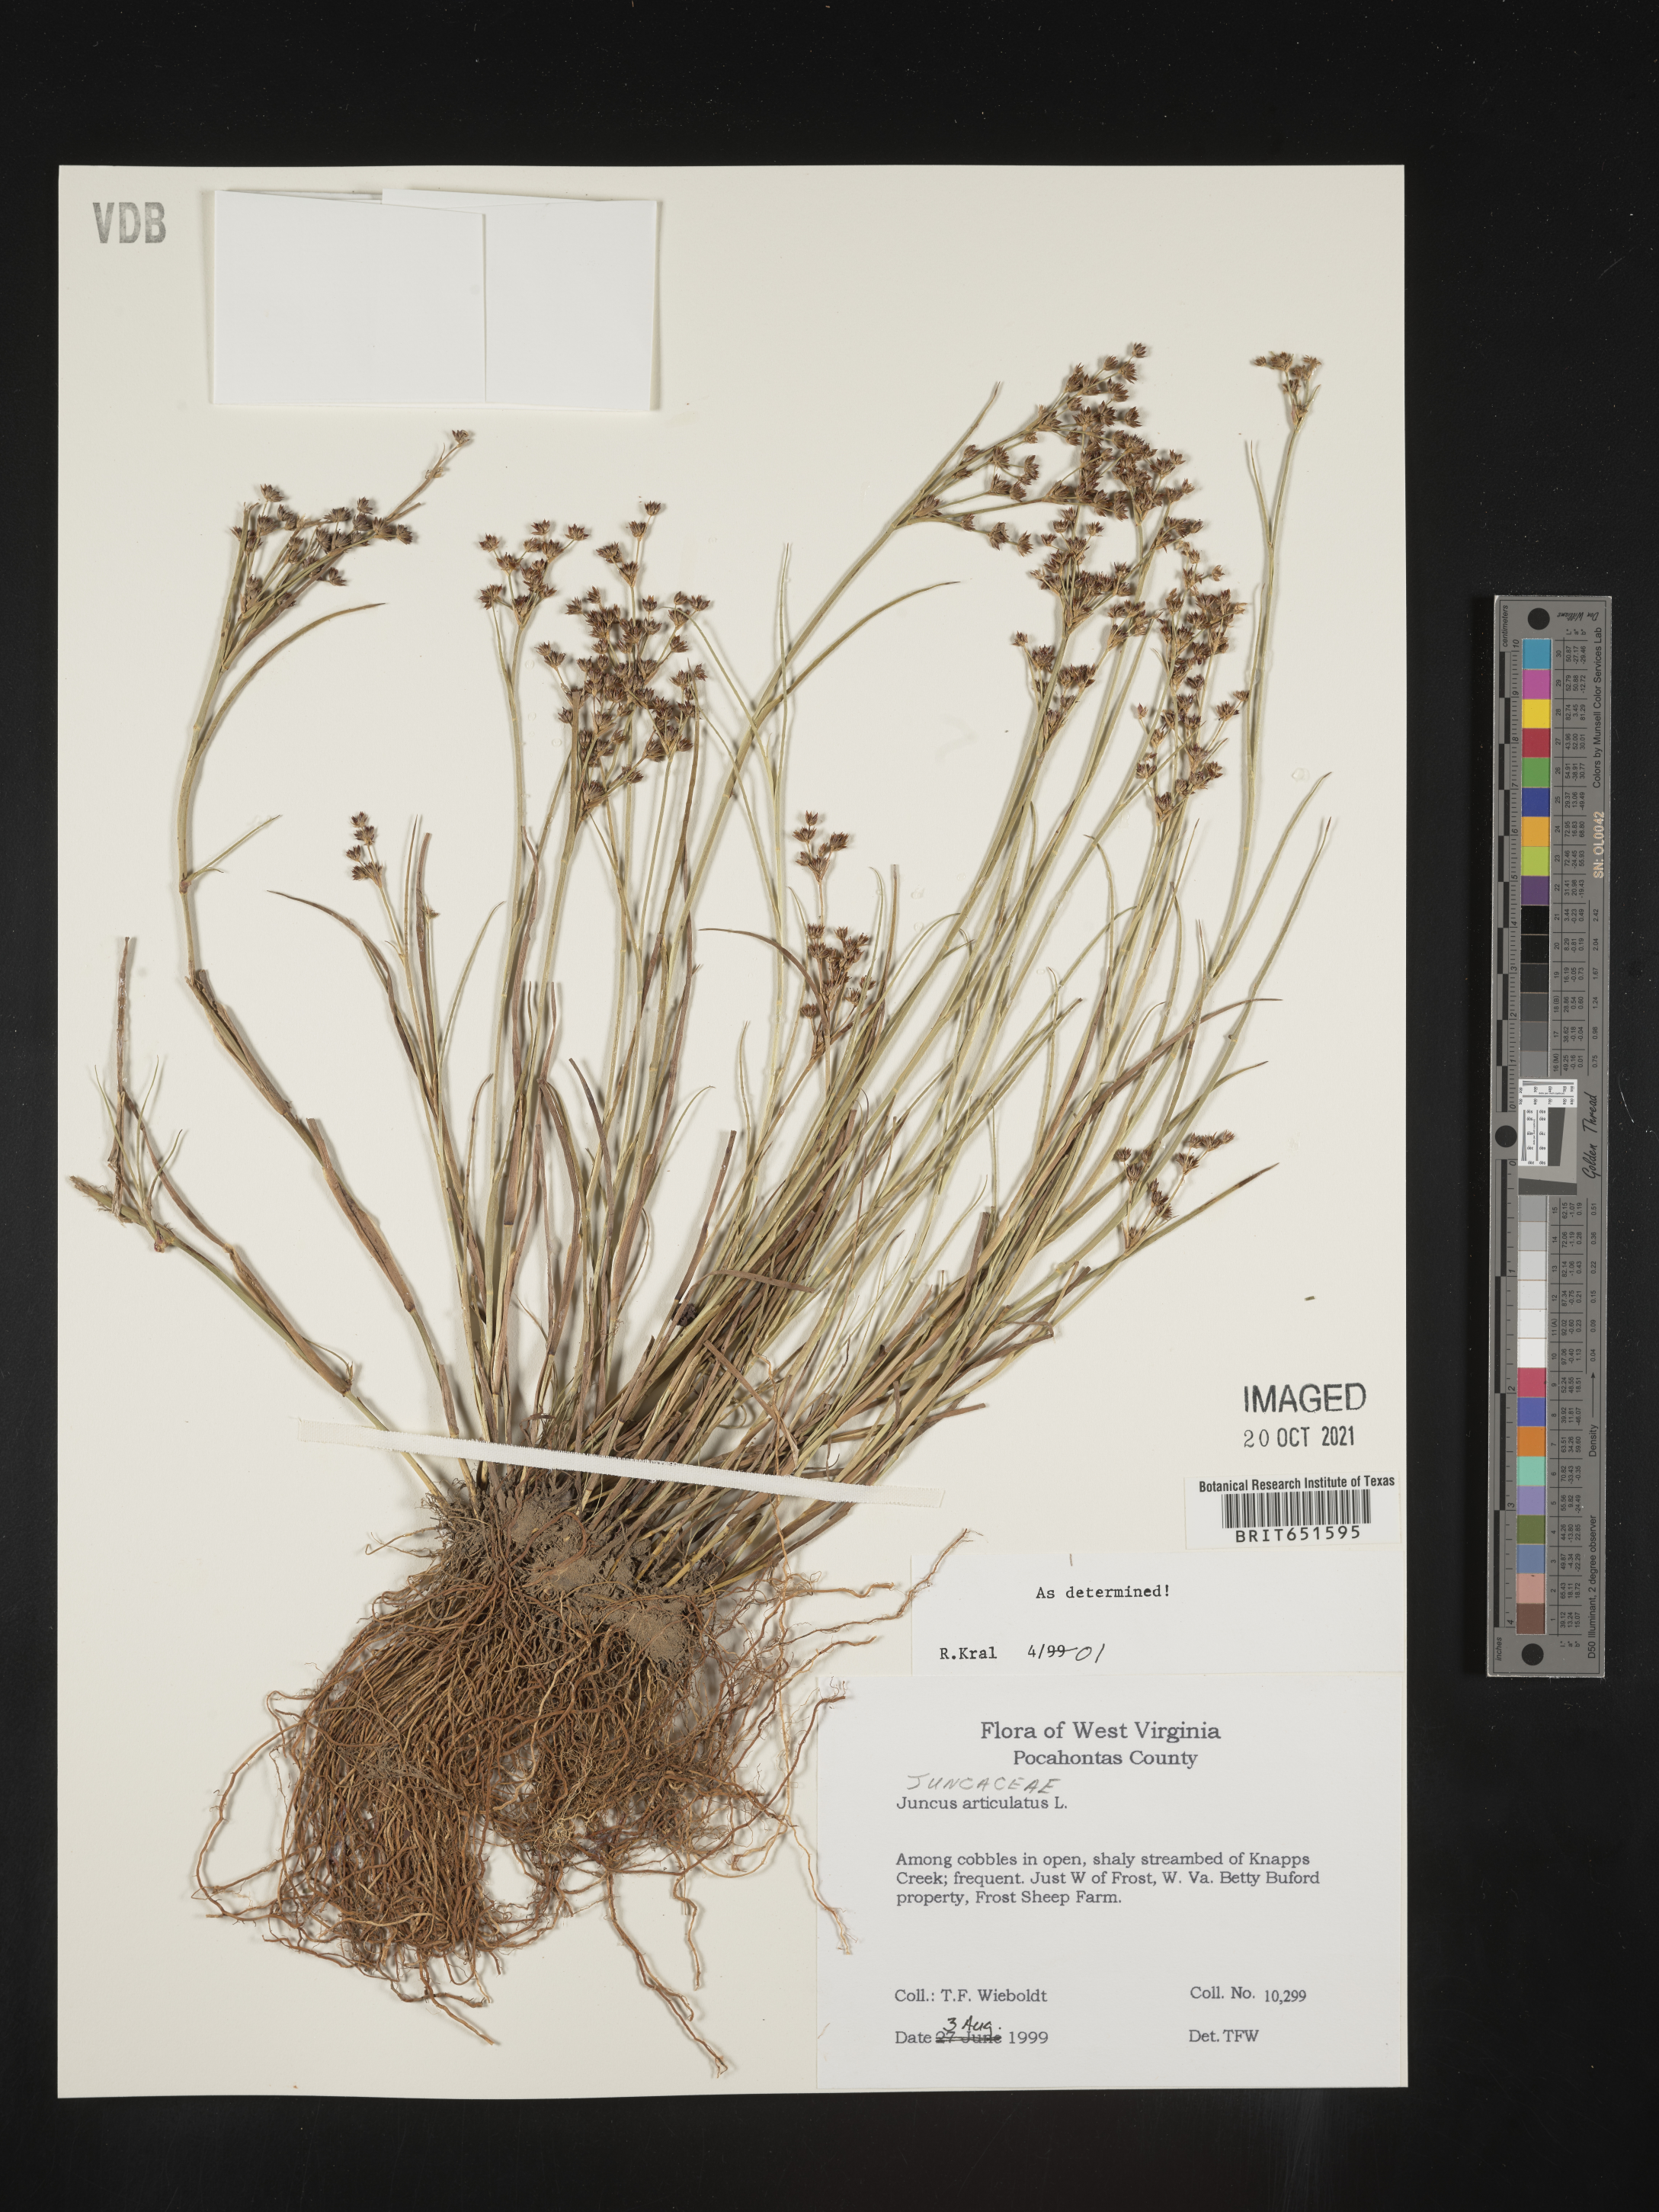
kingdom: Plantae
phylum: Tracheophyta
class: Liliopsida
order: Poales
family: Juncaceae
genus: Juncus
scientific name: Juncus articulatus
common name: Jointed rush
